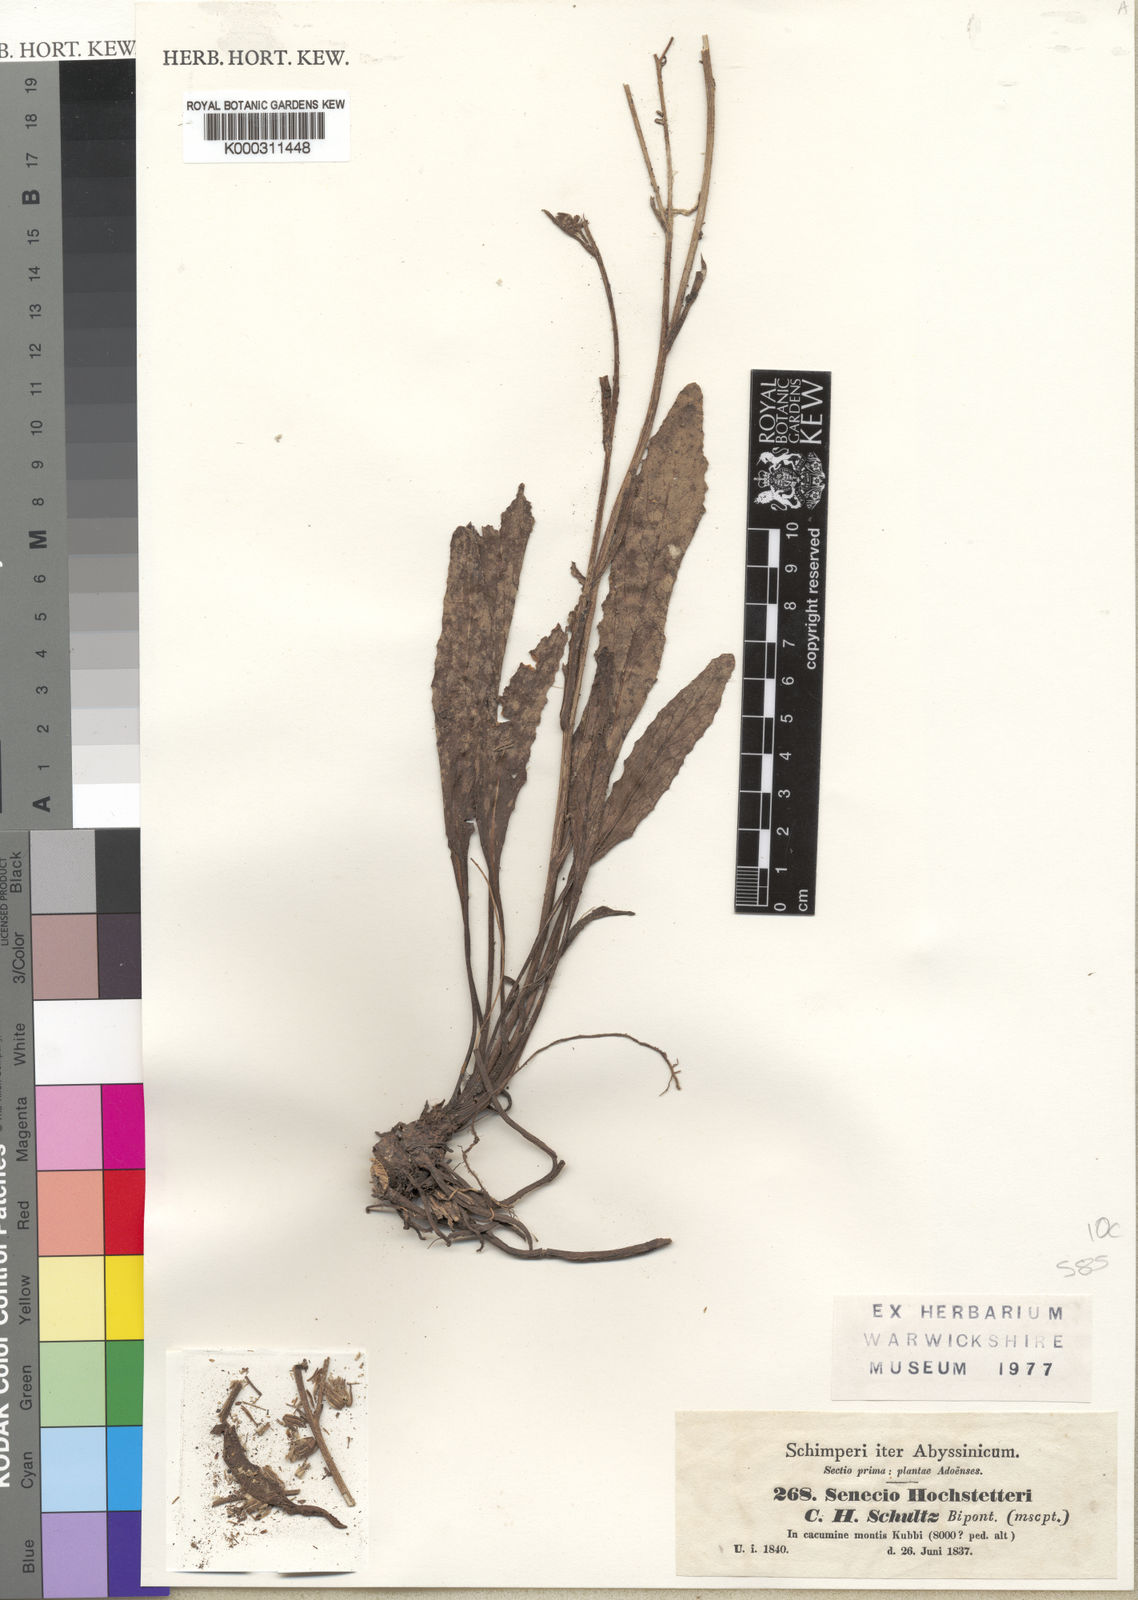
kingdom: Plantae
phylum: Tracheophyta
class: Magnoliopsida
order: Asterales
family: Asteraceae
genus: Senecio
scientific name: Senecio hochstetteri
